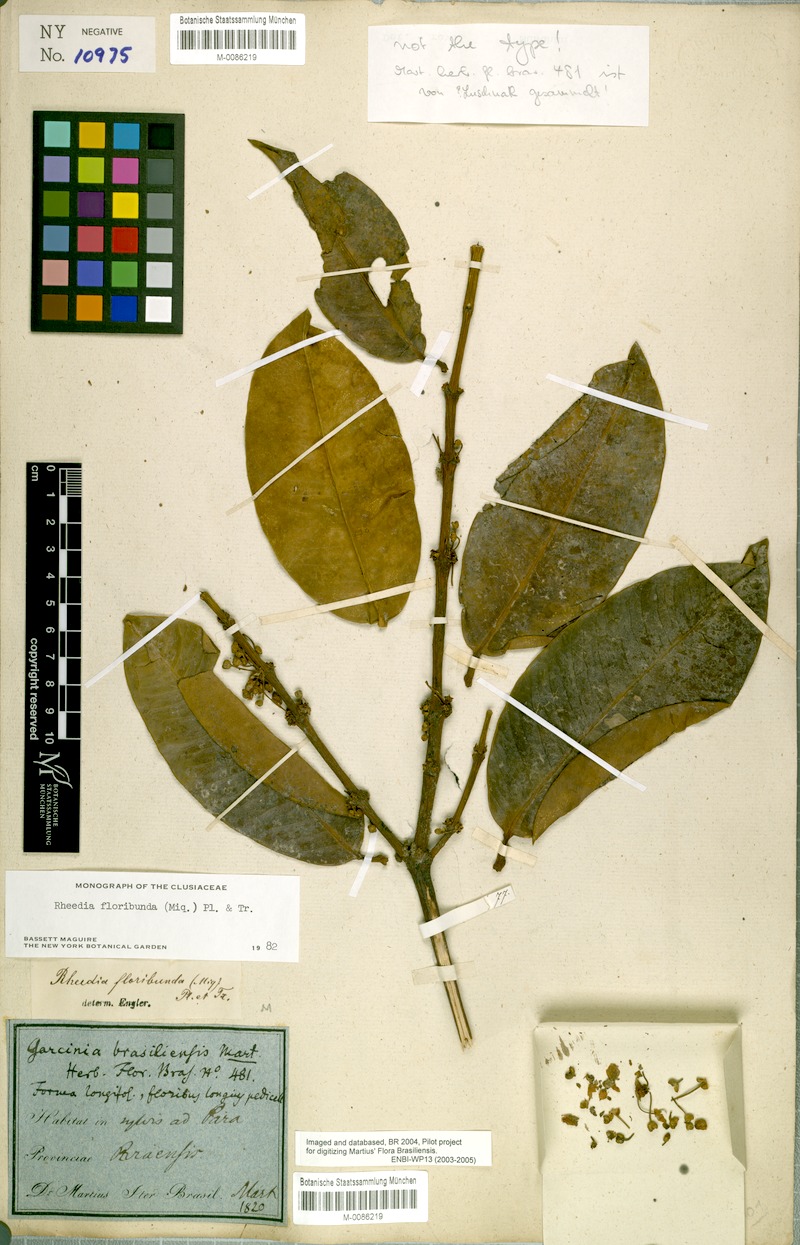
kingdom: Plantae
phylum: Tracheophyta
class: Magnoliopsida
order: Malpighiales
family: Clusiaceae
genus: Garcinia
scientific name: Garcinia madruno
